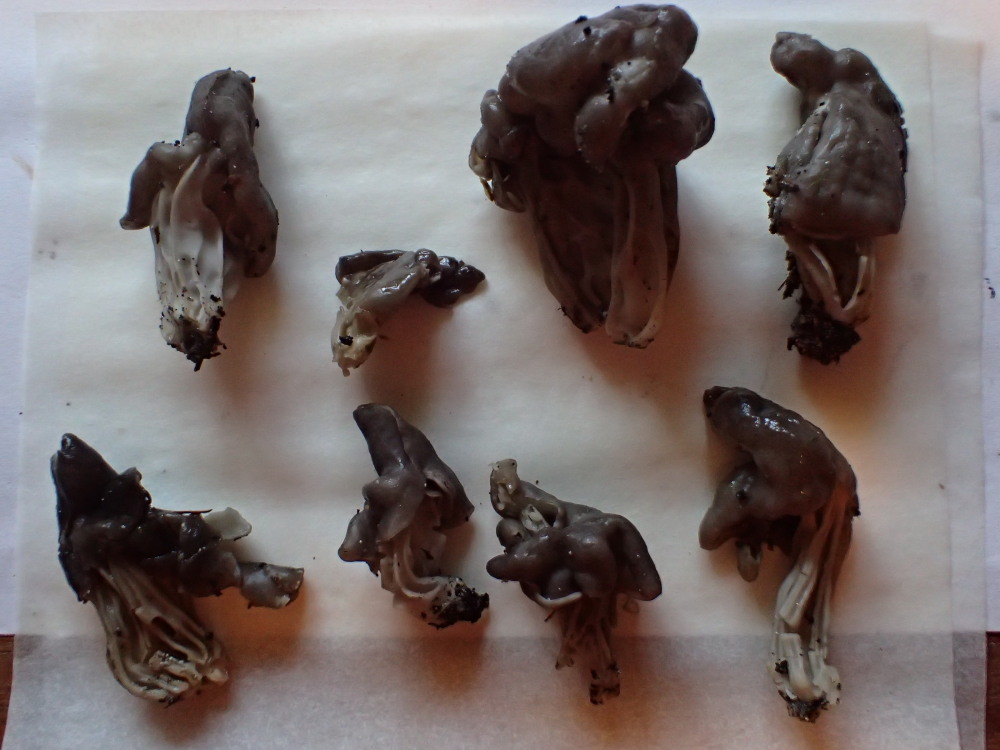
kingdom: Fungi
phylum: Ascomycota
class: Pezizomycetes
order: Pezizales
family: Helvellaceae
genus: Helvella
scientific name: Helvella lacunosa
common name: grubet foldhat
